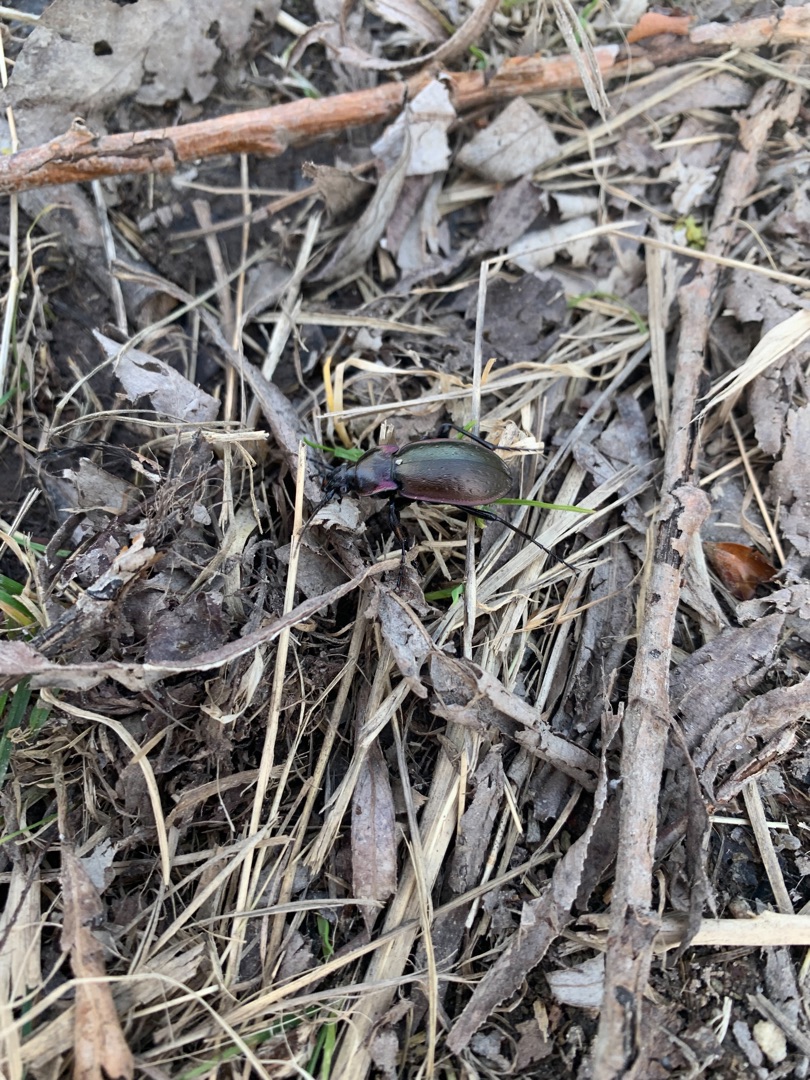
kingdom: Animalia
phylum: Arthropoda
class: Insecta
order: Coleoptera
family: Carabidae
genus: Carabus
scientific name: Carabus nemoralis
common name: Kratløber
